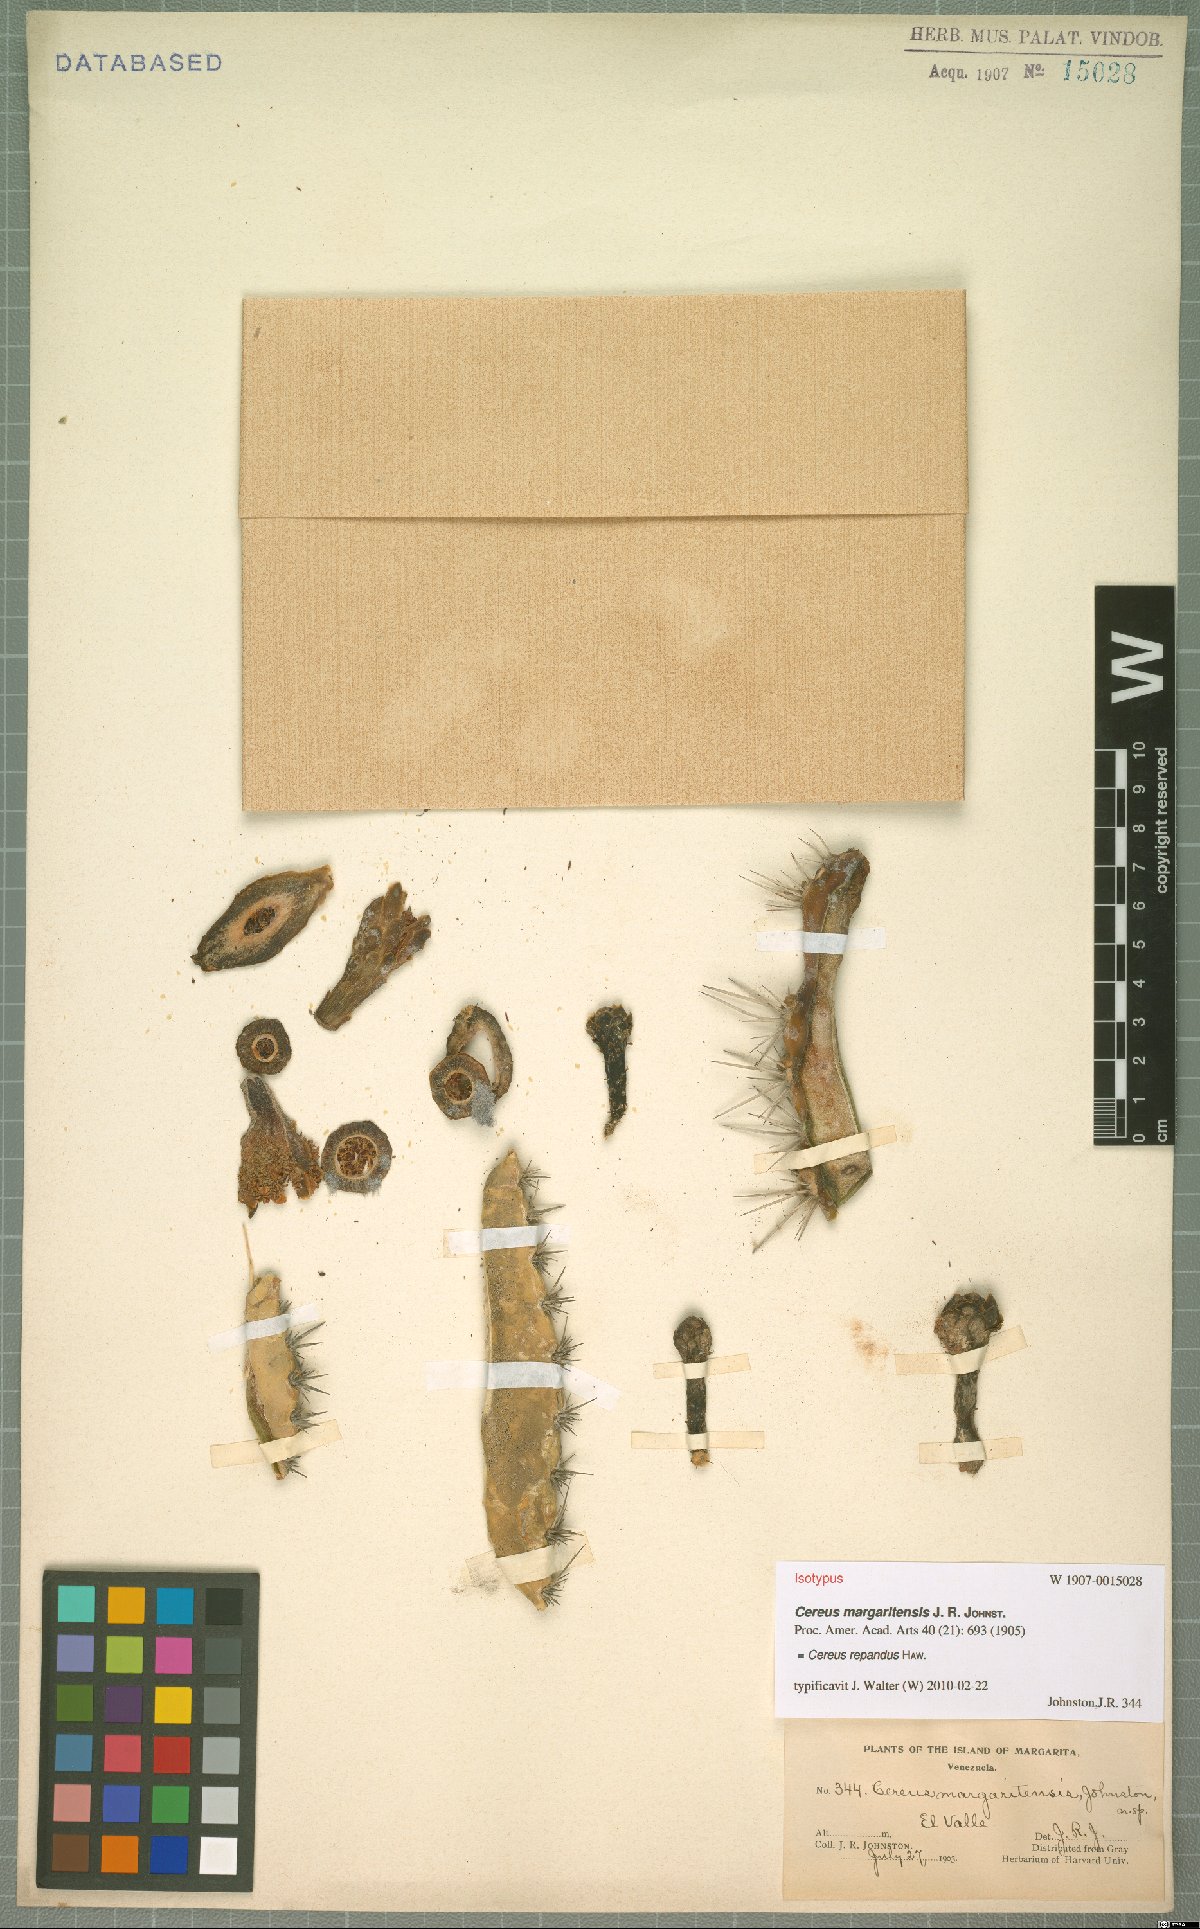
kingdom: Plantae
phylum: Tracheophyta
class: Magnoliopsida
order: Caryophyllales
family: Cactaceae
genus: Cereus
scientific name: Cereus repandus
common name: Sweetpotato cactus
